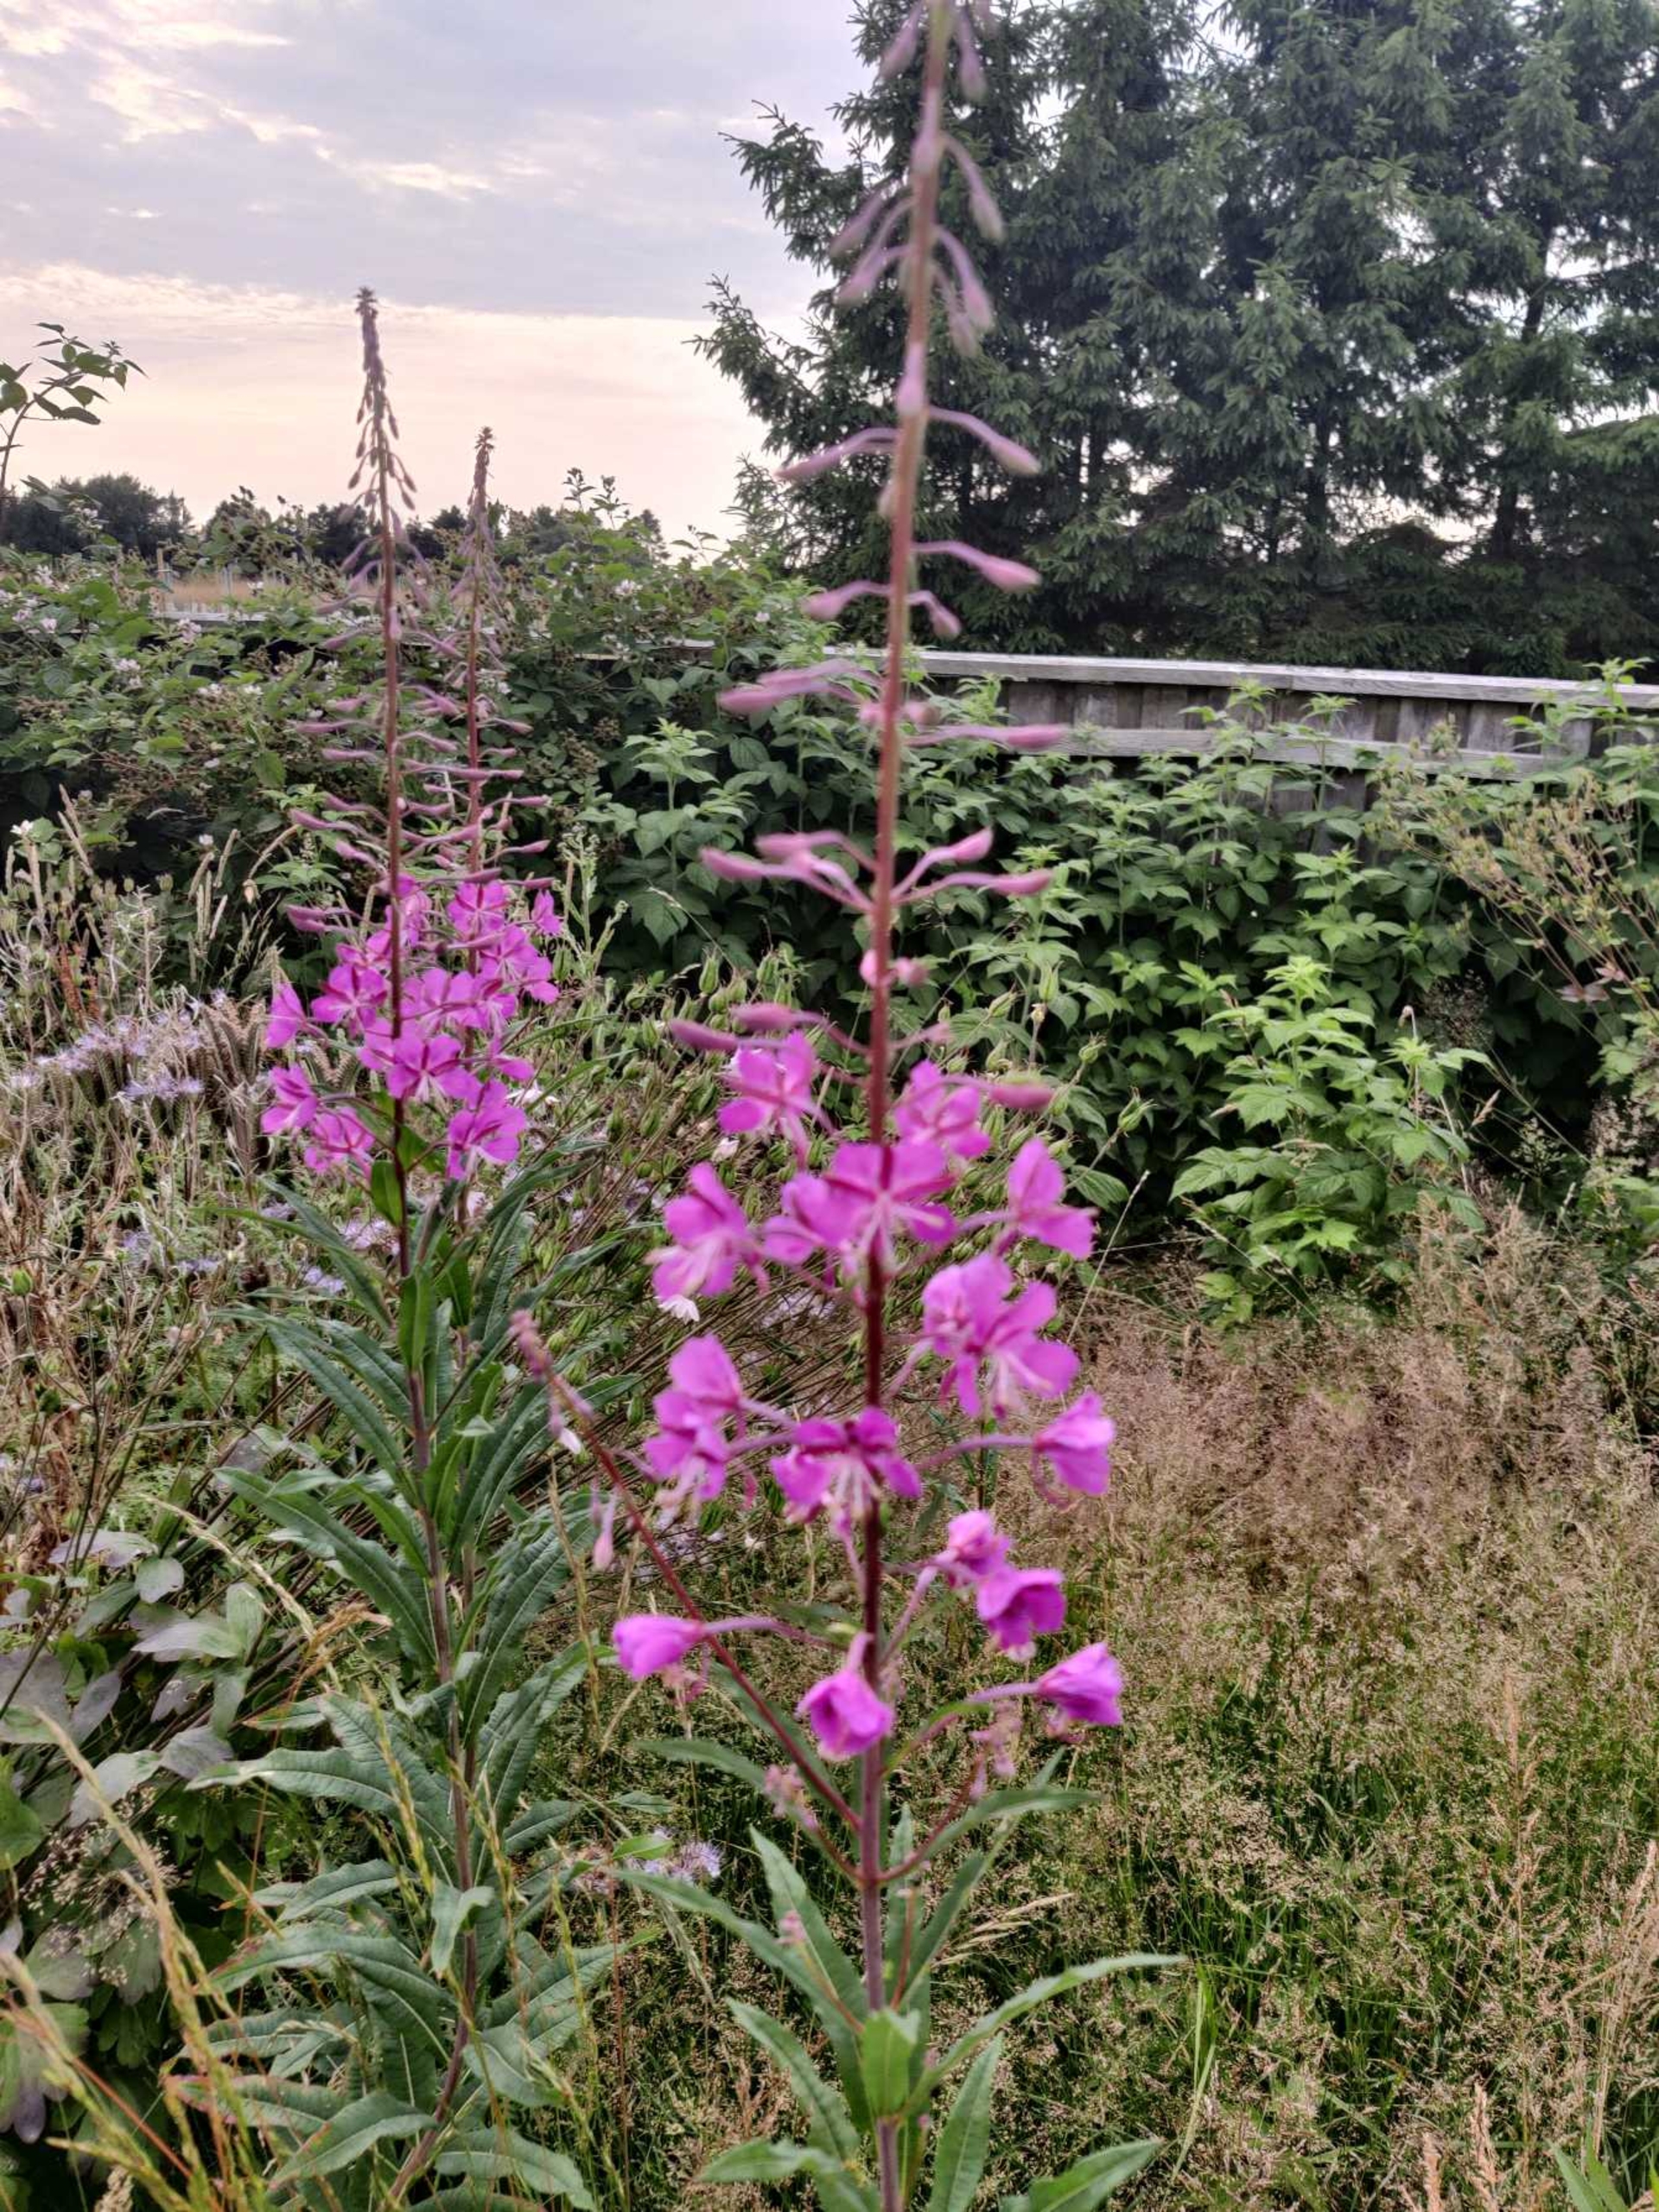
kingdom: Plantae
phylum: Tracheophyta
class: Magnoliopsida
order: Myrtales
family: Onagraceae
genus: Chamaenerion
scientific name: Chamaenerion angustifolium
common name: Gederams
